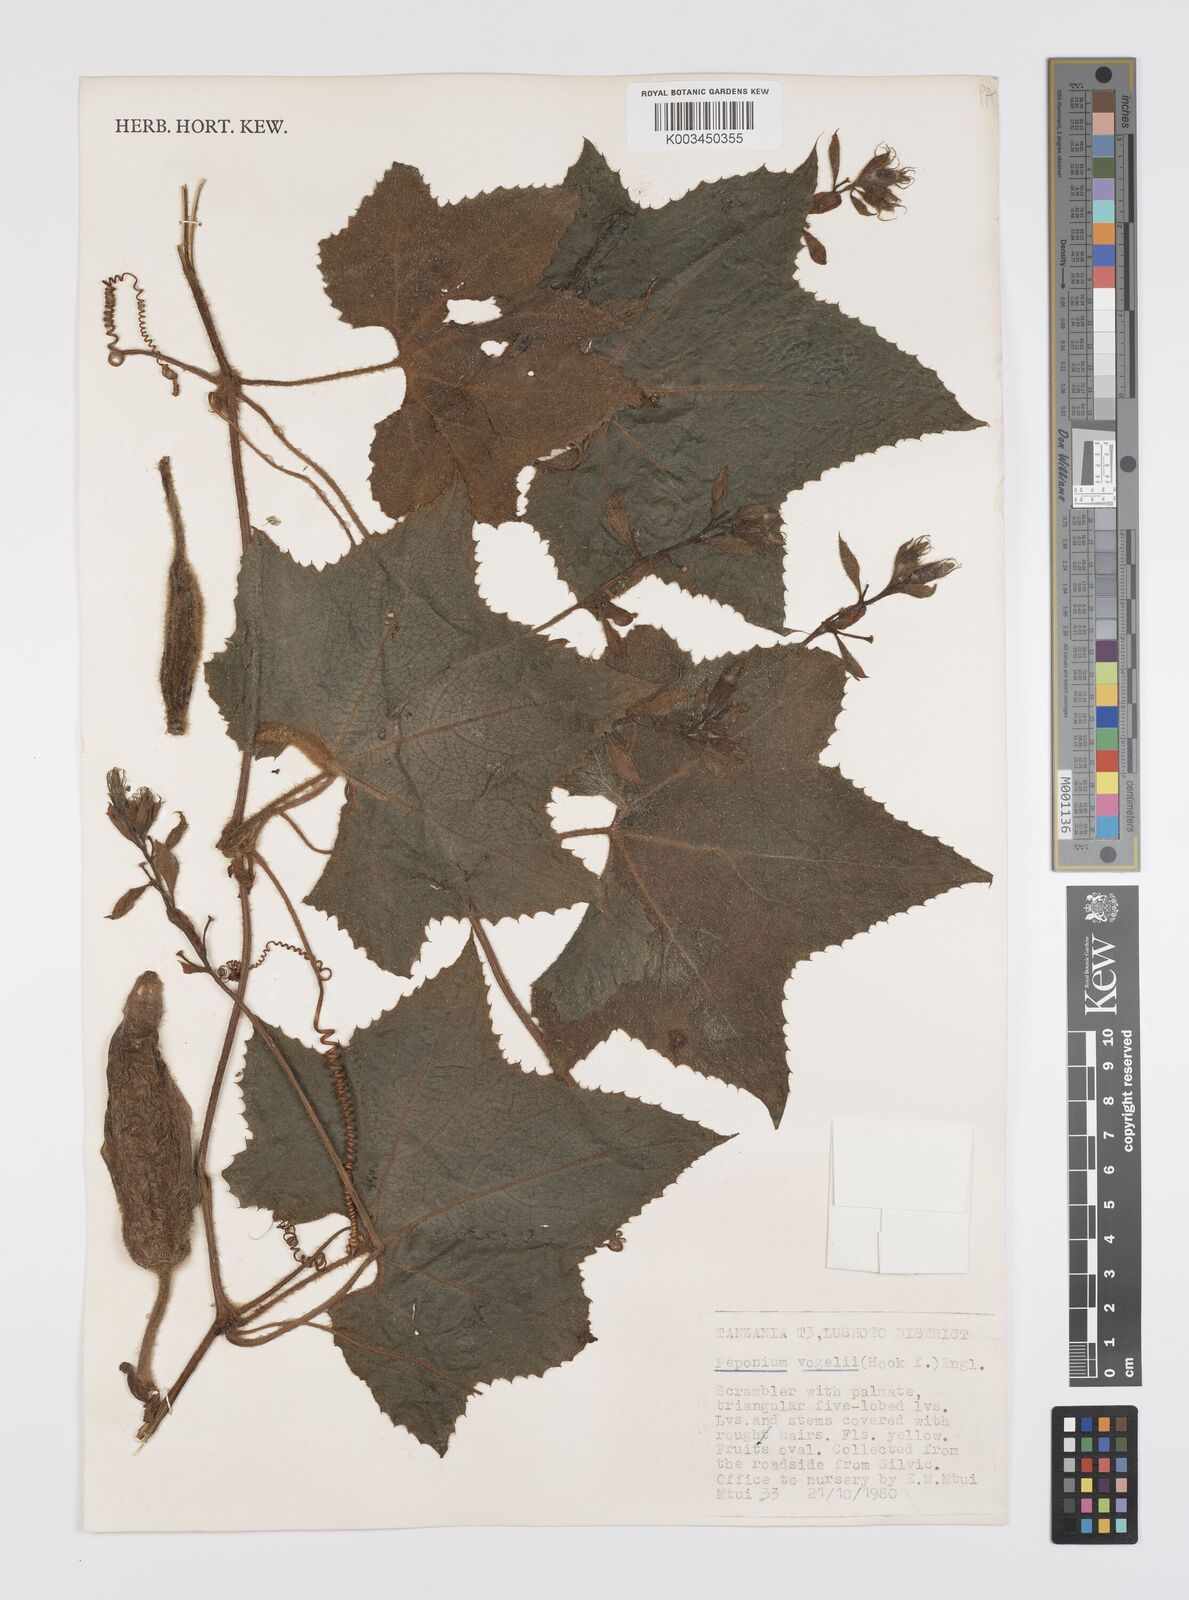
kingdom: Plantae
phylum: Tracheophyta
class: Magnoliopsida
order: Cucurbitales
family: Cucurbitaceae
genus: Peponium
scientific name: Peponium vogelii
